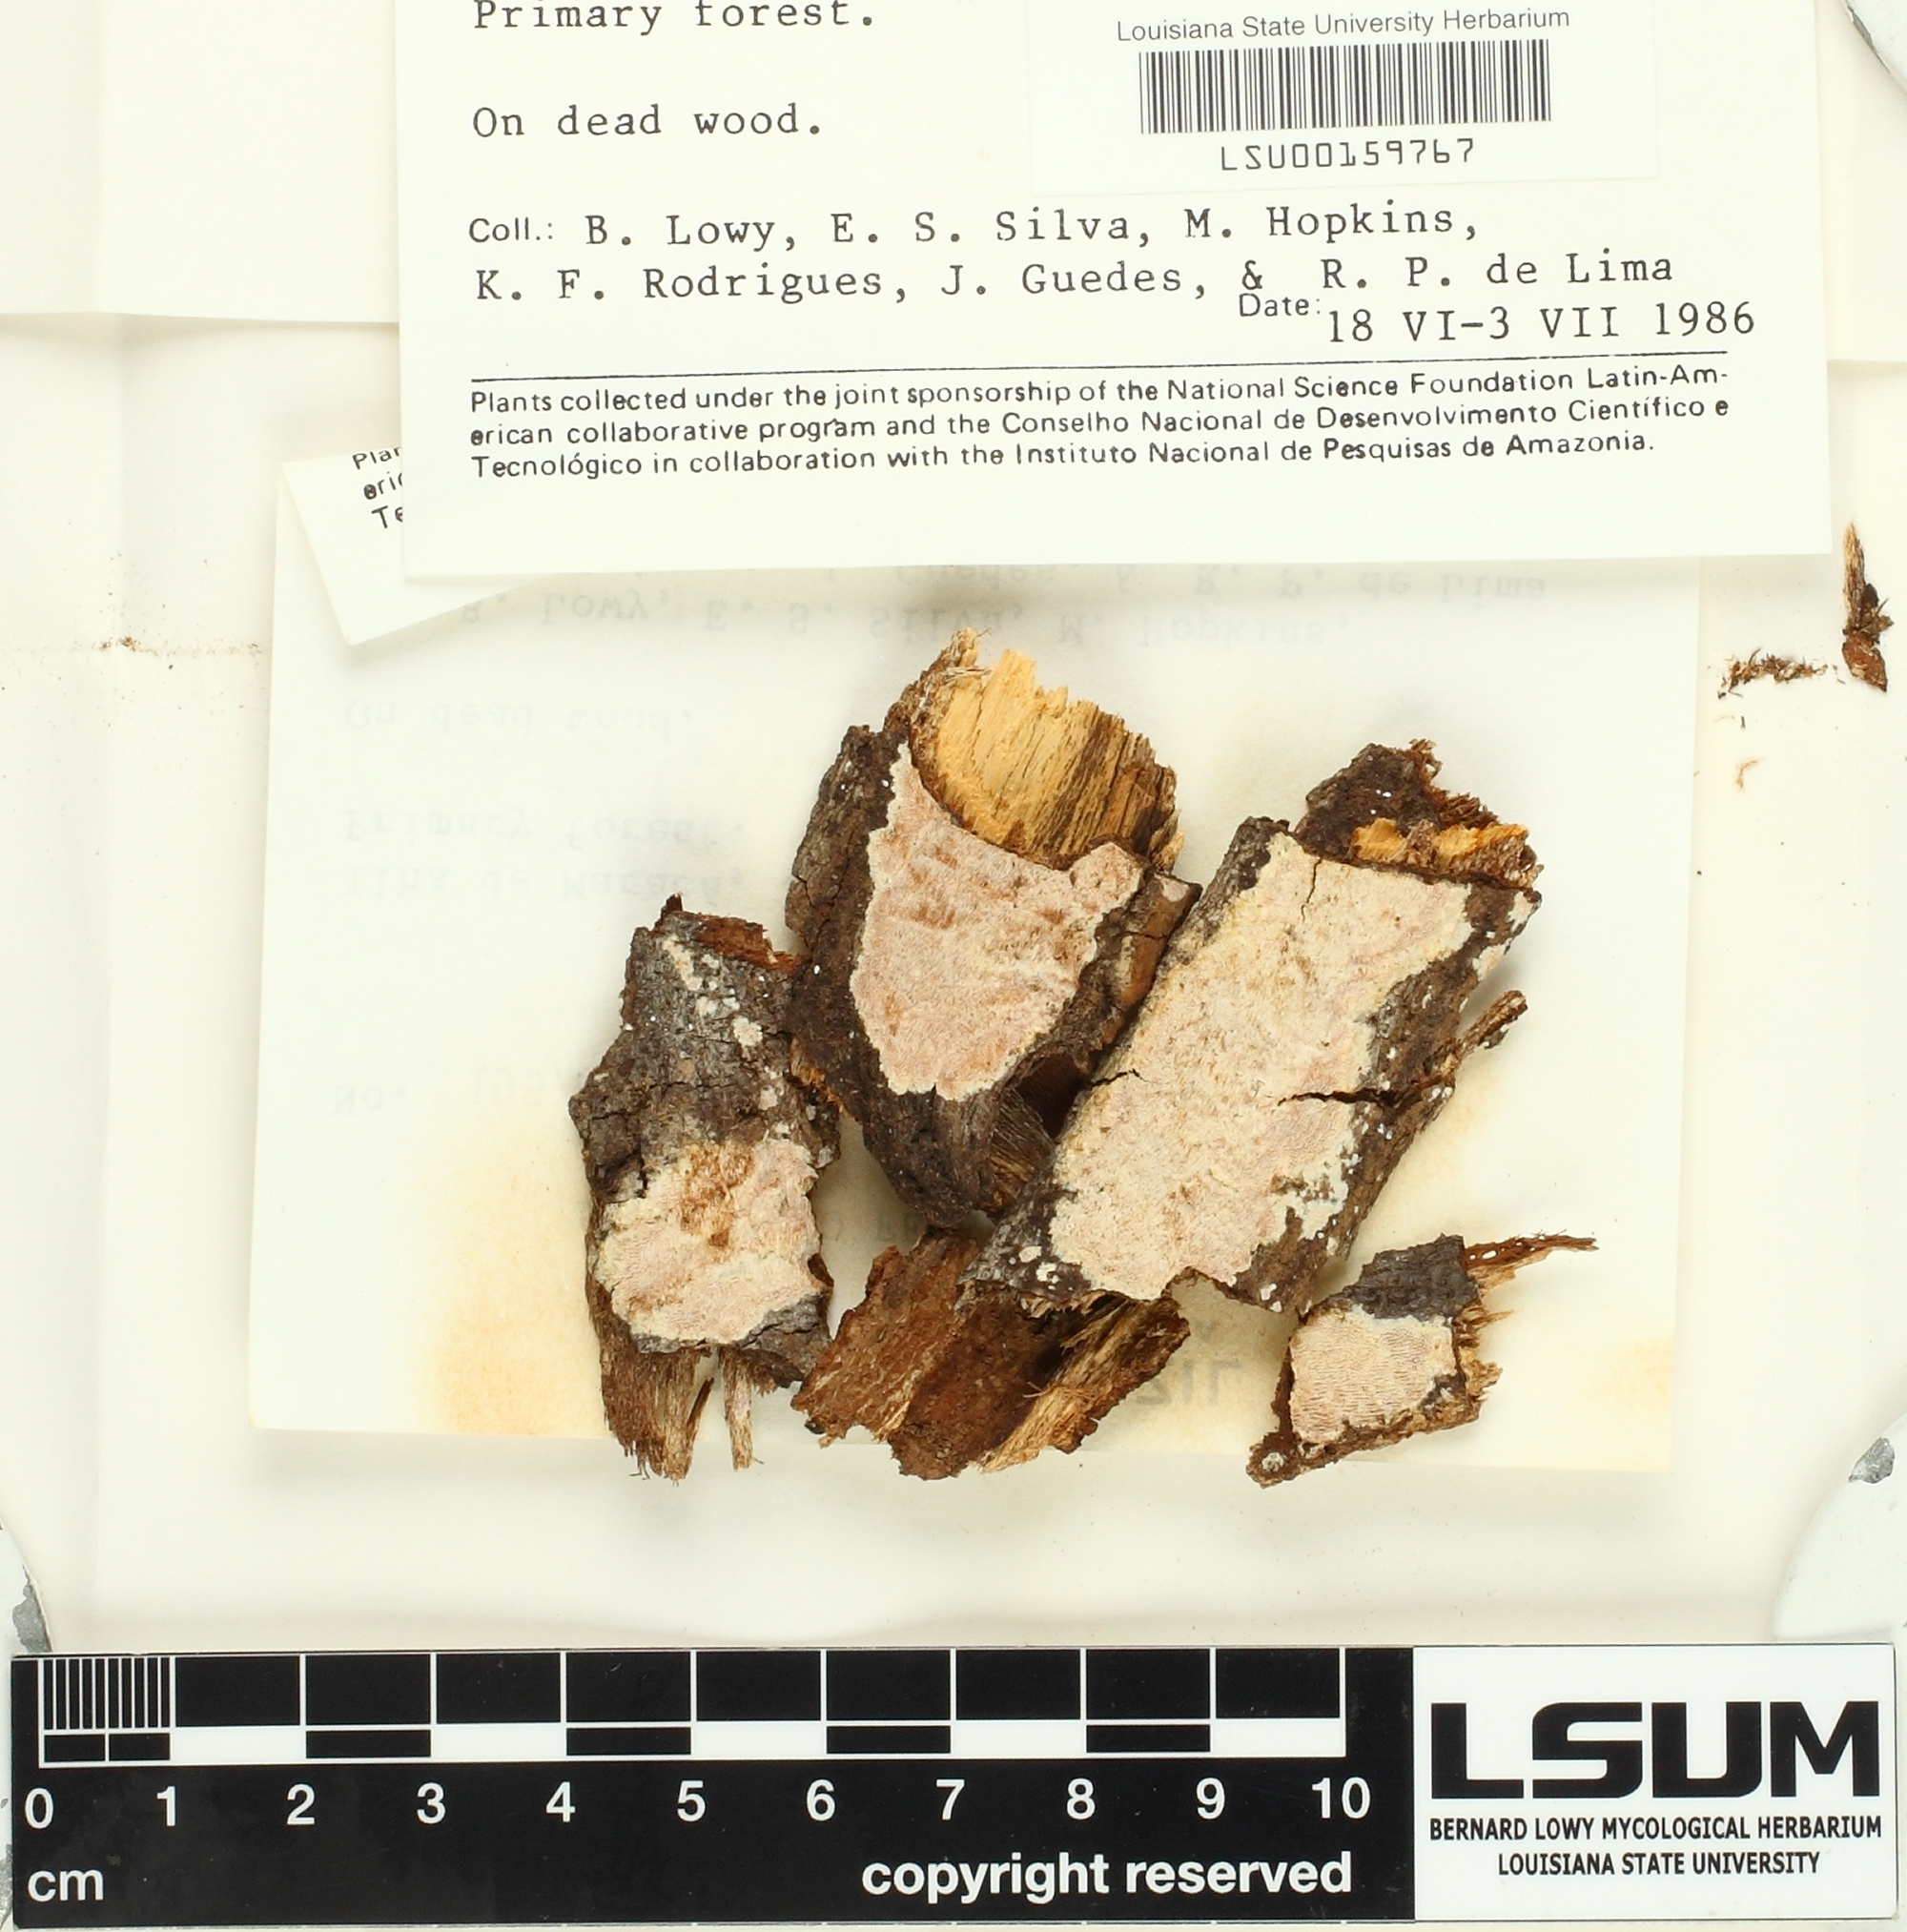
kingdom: Fungi
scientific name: Fungi
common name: Fungi
